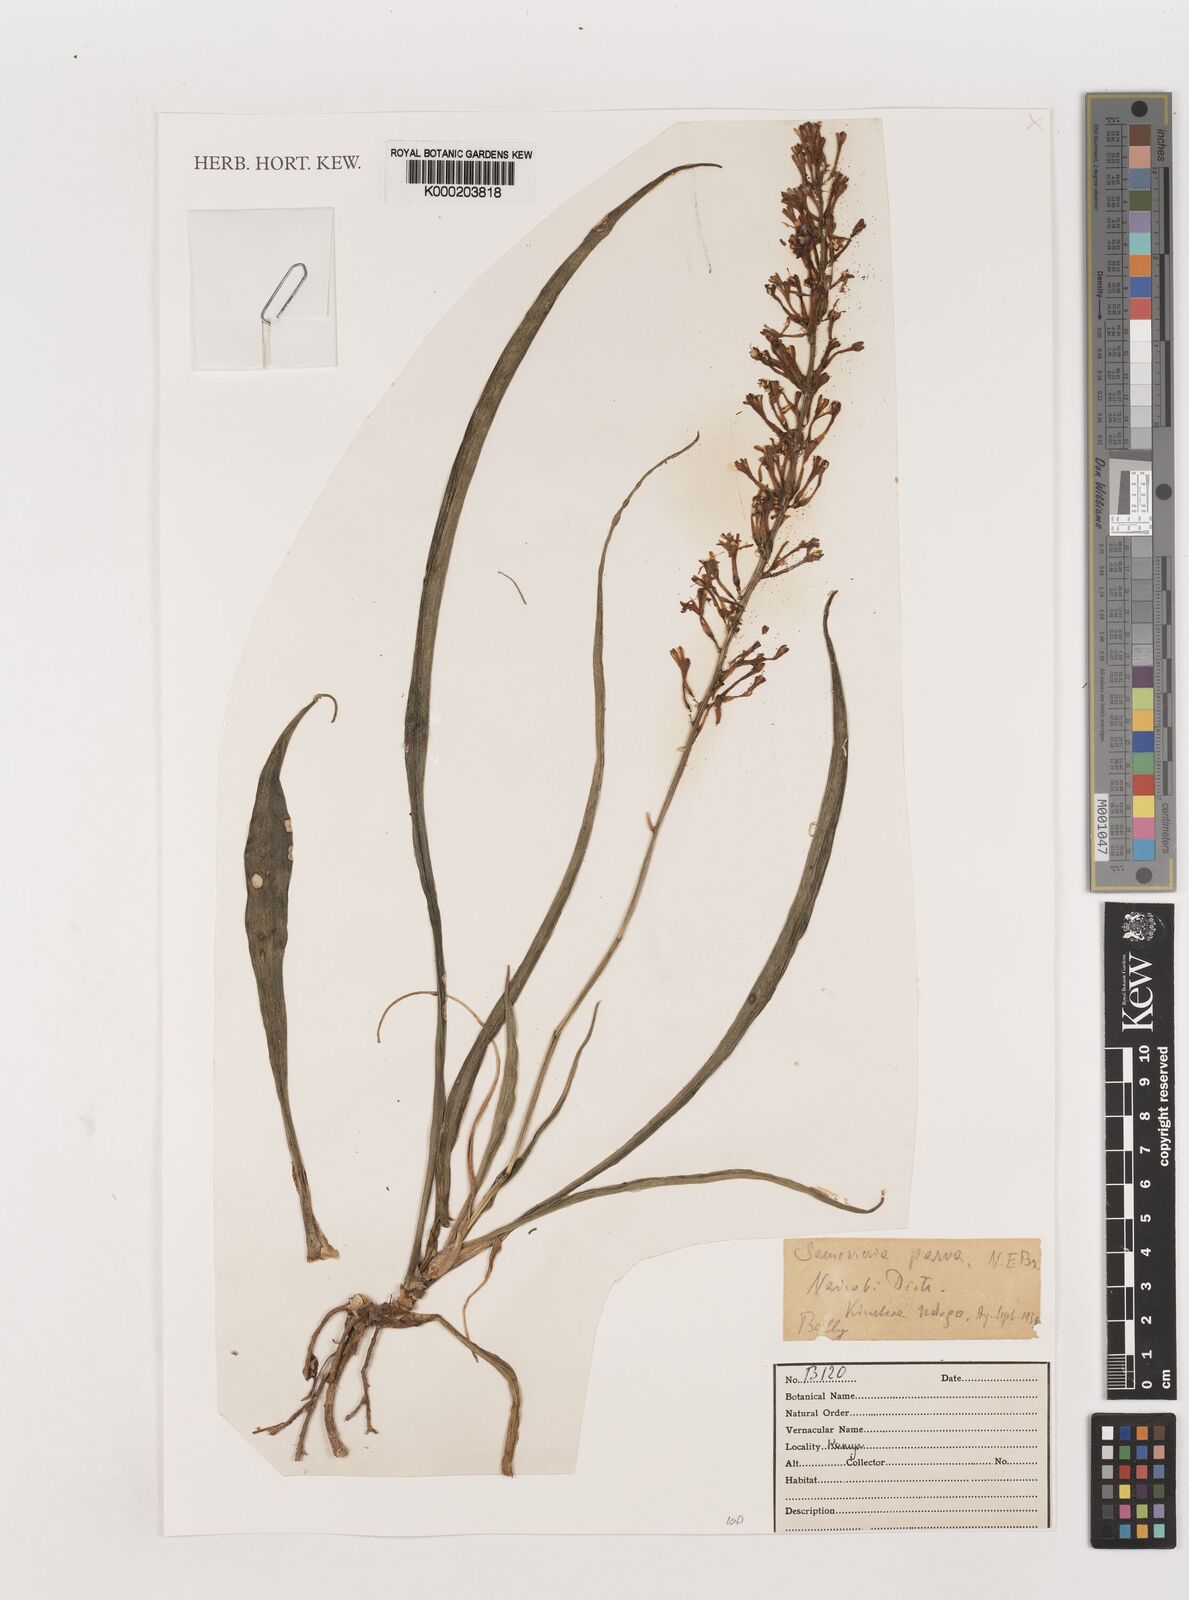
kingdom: Plantae
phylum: Tracheophyta
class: Liliopsida
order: Asparagales
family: Asparagaceae
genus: Dracaena
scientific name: Dracaena parva
